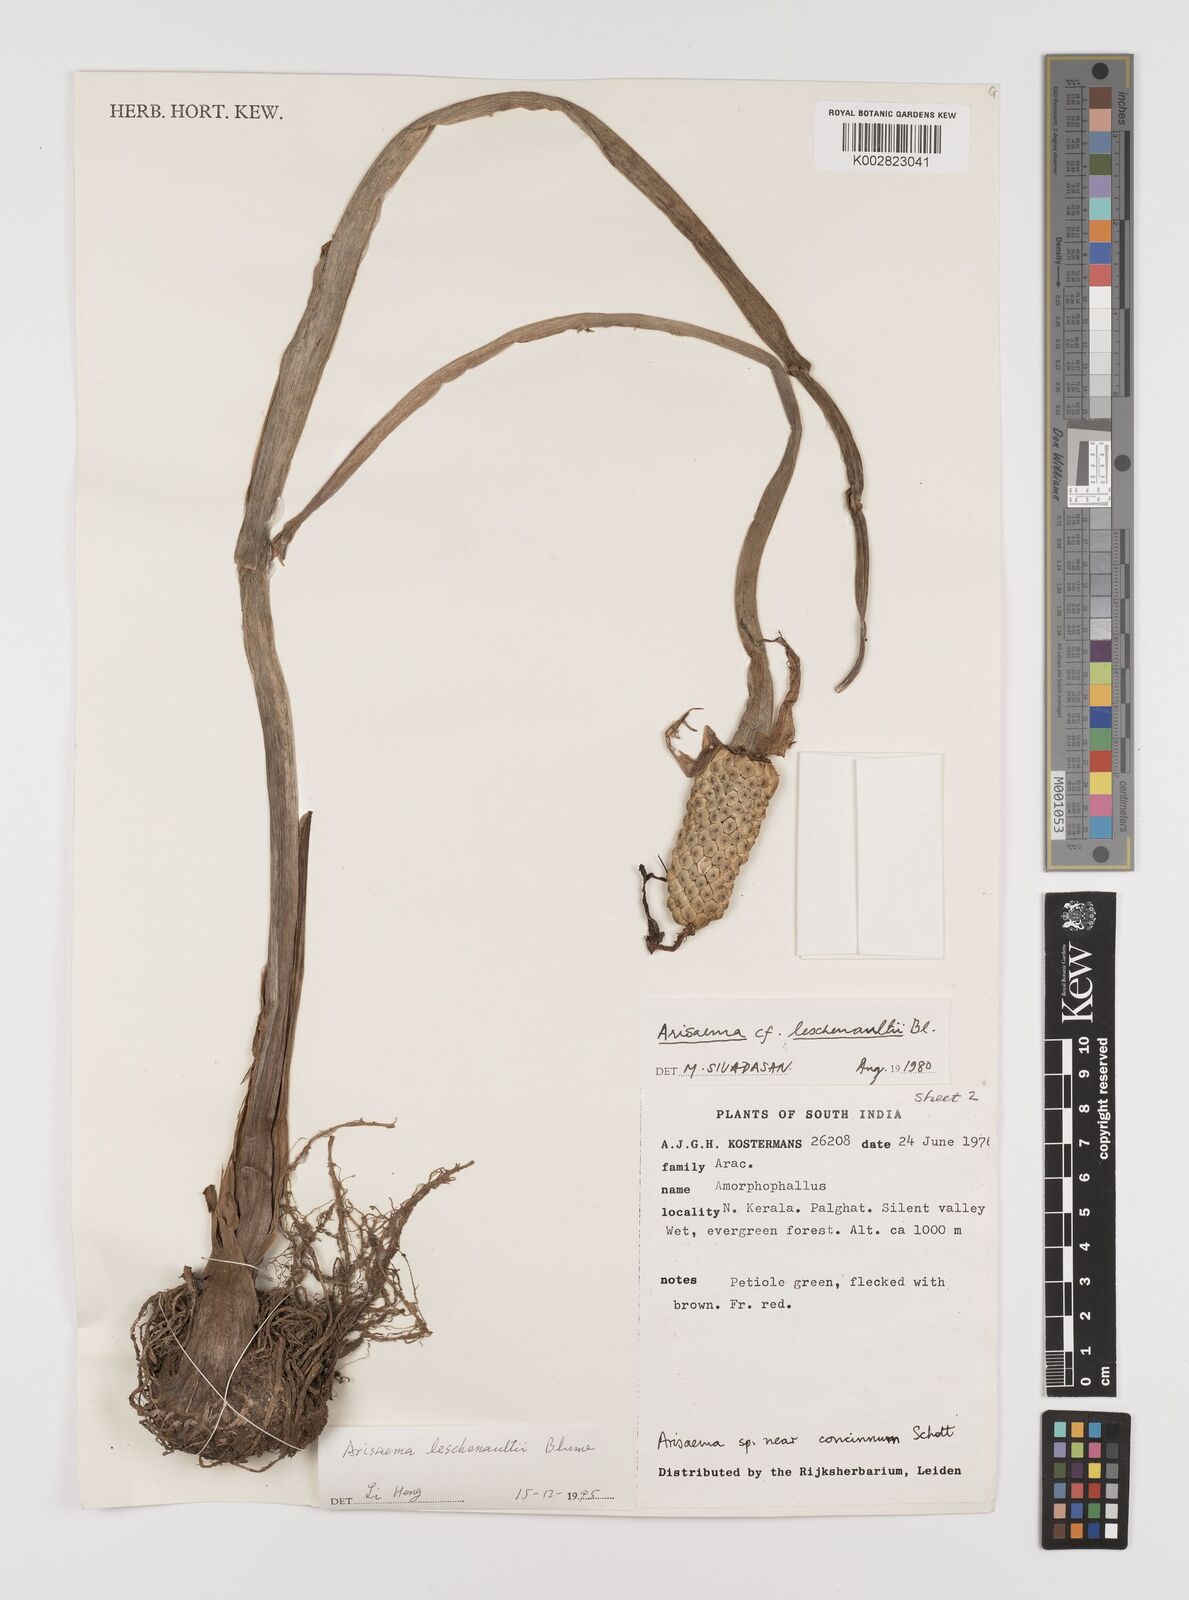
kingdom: Plantae
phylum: Tracheophyta
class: Liliopsida
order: Alismatales
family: Araceae
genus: Arisaema
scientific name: Arisaema leschenaultii
